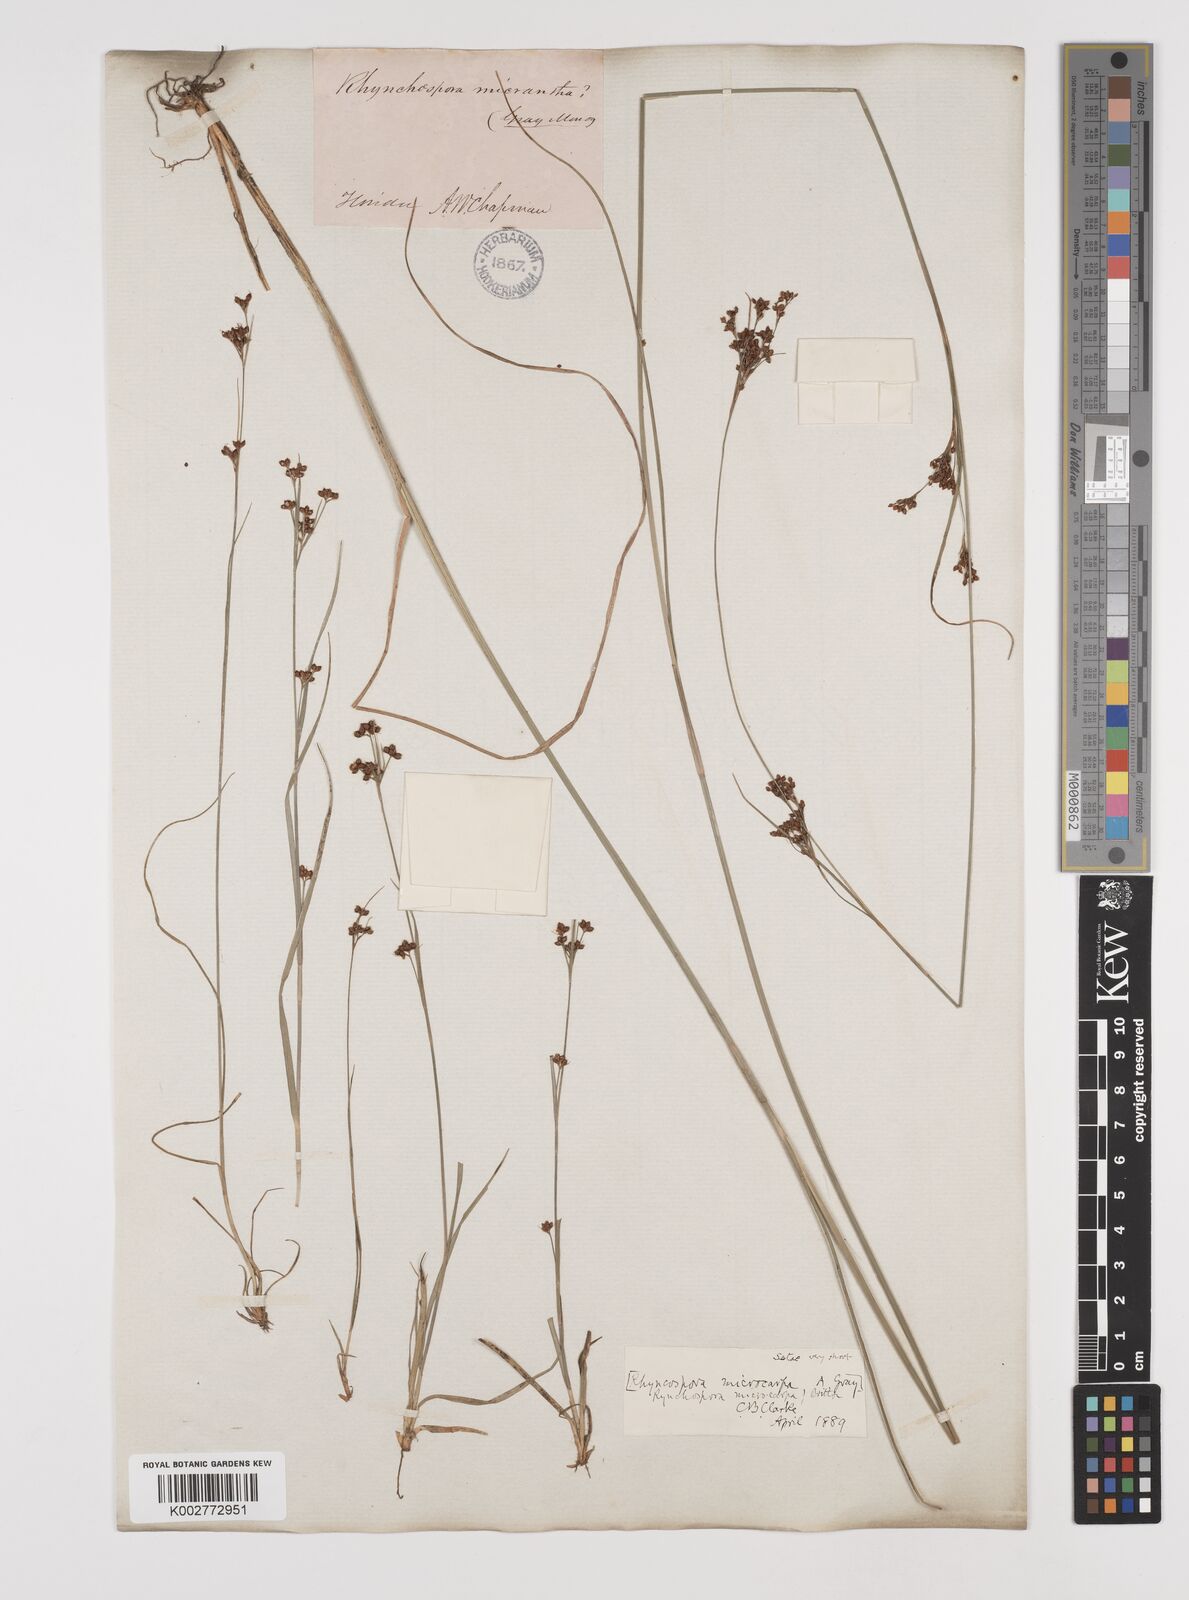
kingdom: Plantae
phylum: Tracheophyta
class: Liliopsida
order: Poales
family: Cyperaceae
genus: Rhynchospora
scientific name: Rhynchospora microcarpa
